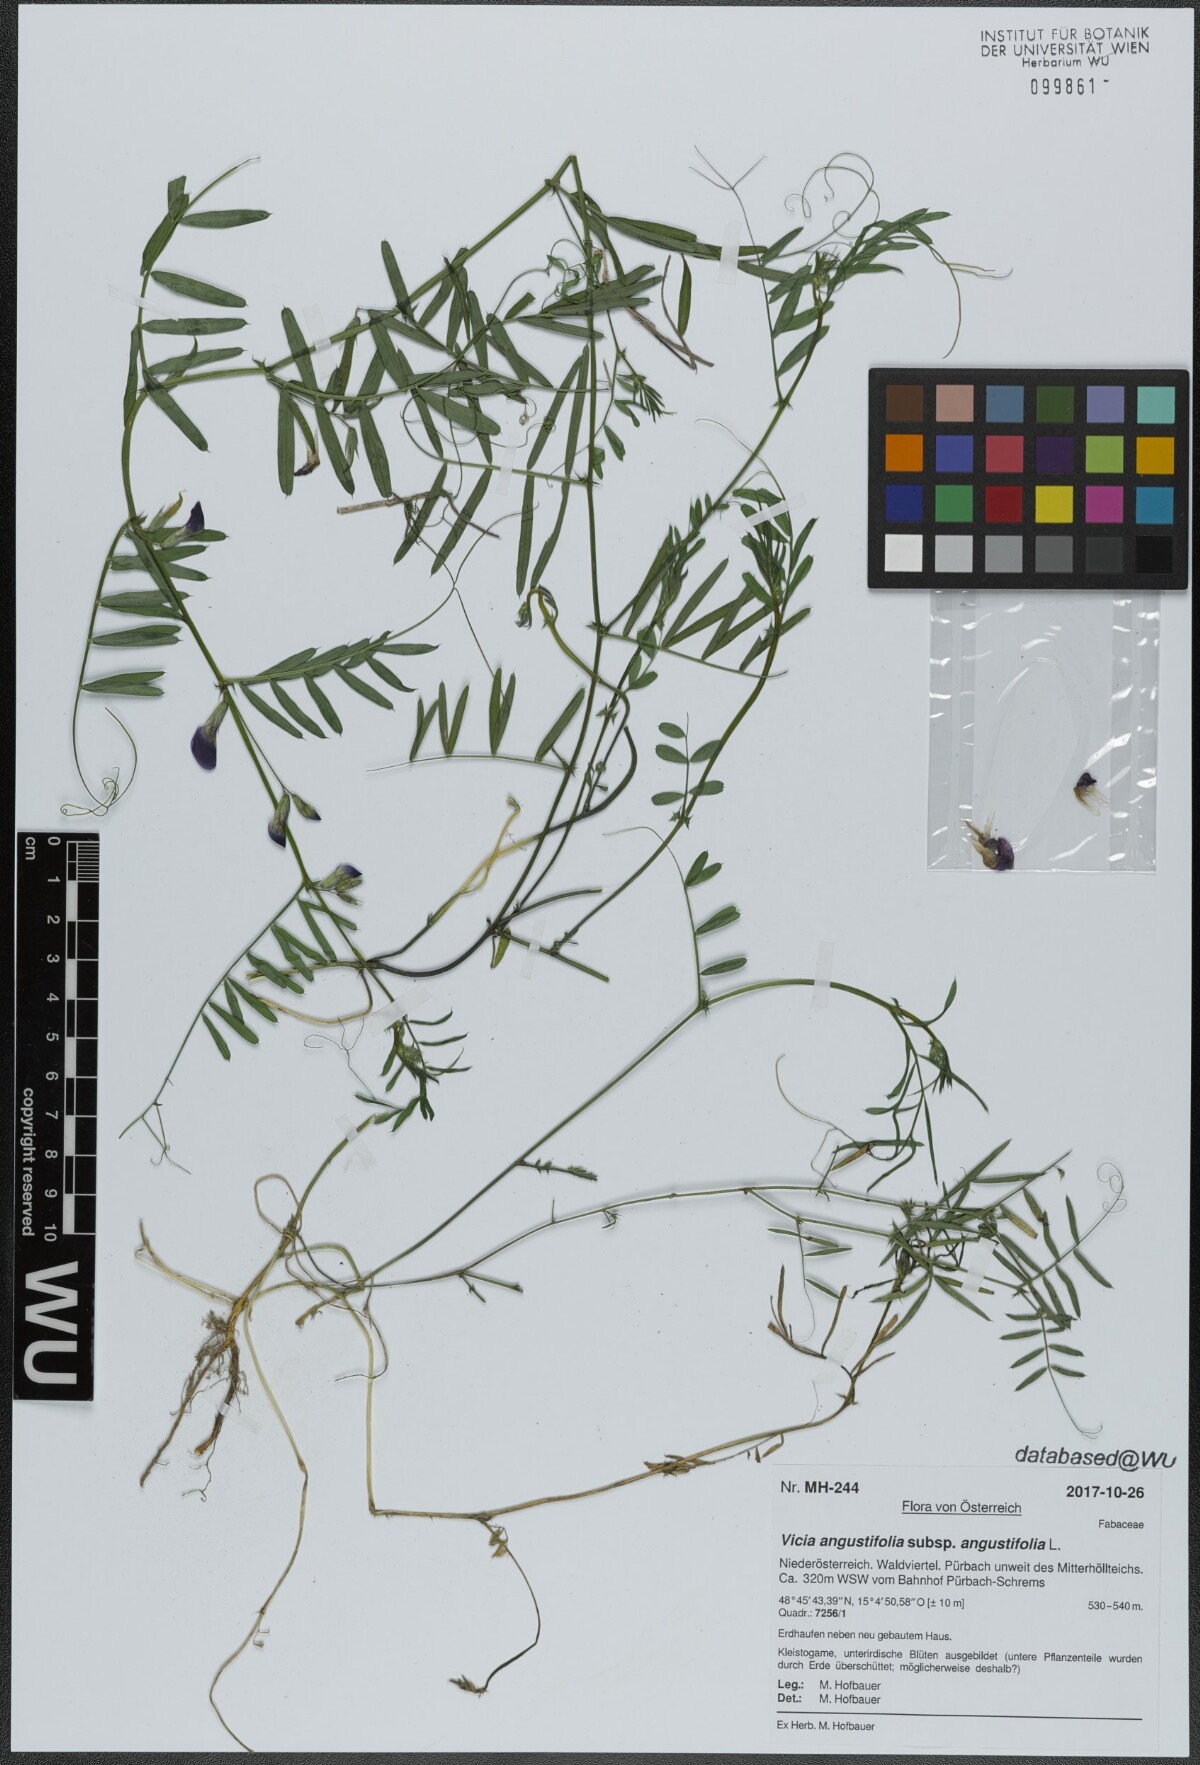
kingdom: Plantae
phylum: Tracheophyta
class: Magnoliopsida
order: Fabales
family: Fabaceae
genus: Vicia
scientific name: Vicia sativa
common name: Garden vetch
